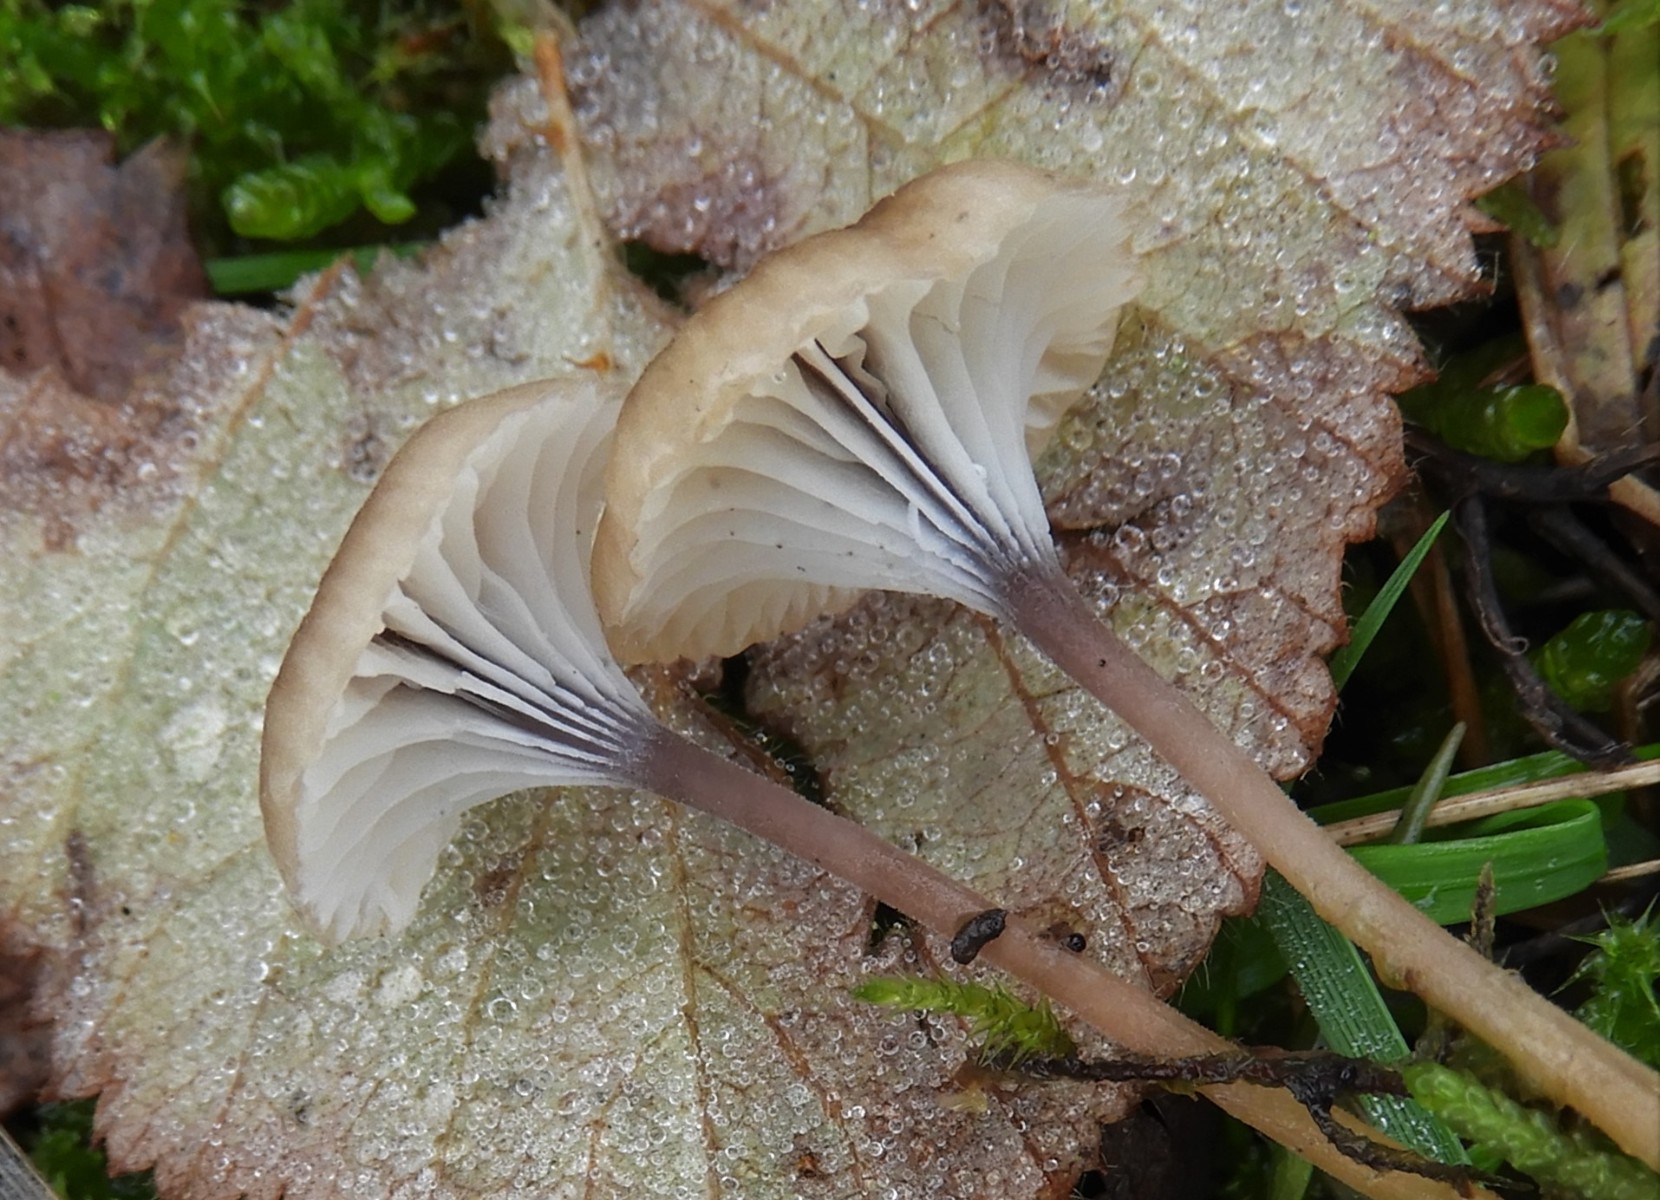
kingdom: Fungi
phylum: Basidiomycota
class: Agaricomycetes
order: Hymenochaetales
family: Rickenellaceae
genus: Rickenella
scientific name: Rickenella swartzii
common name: finstokket mosnavlehat
